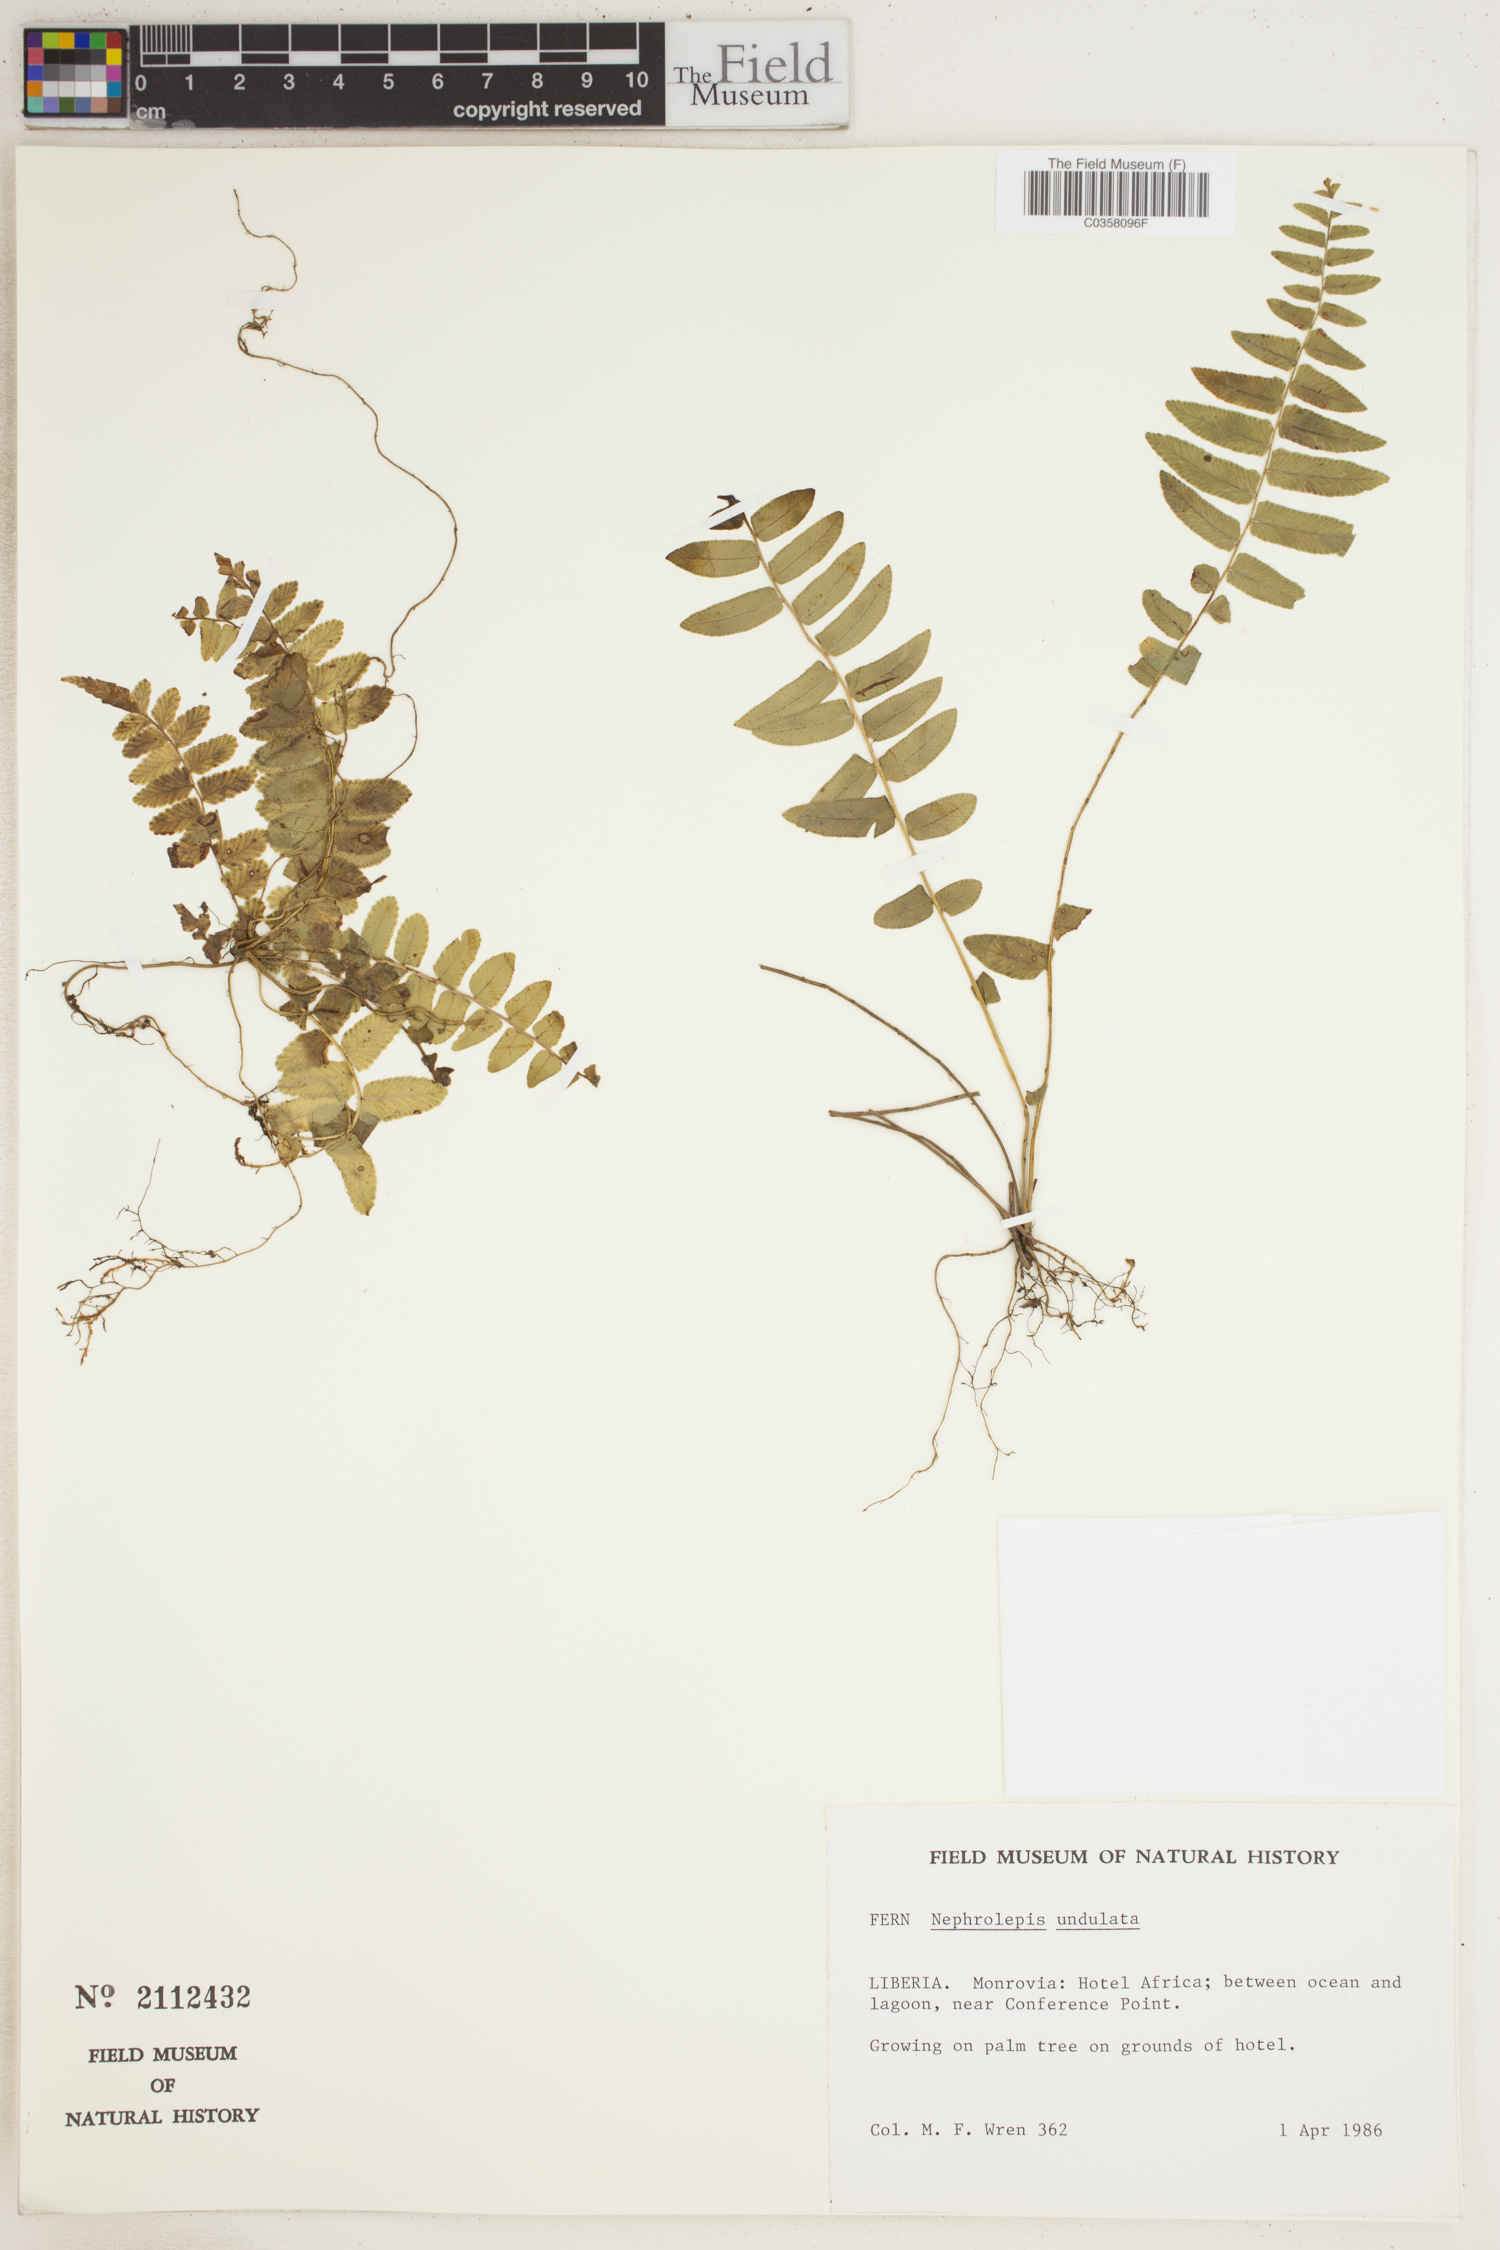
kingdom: Plantae
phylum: Tracheophyta
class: Polypodiopsida
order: Polypodiales
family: Nephrolepidaceae
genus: Nephrolepis
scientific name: Nephrolepis undulata
